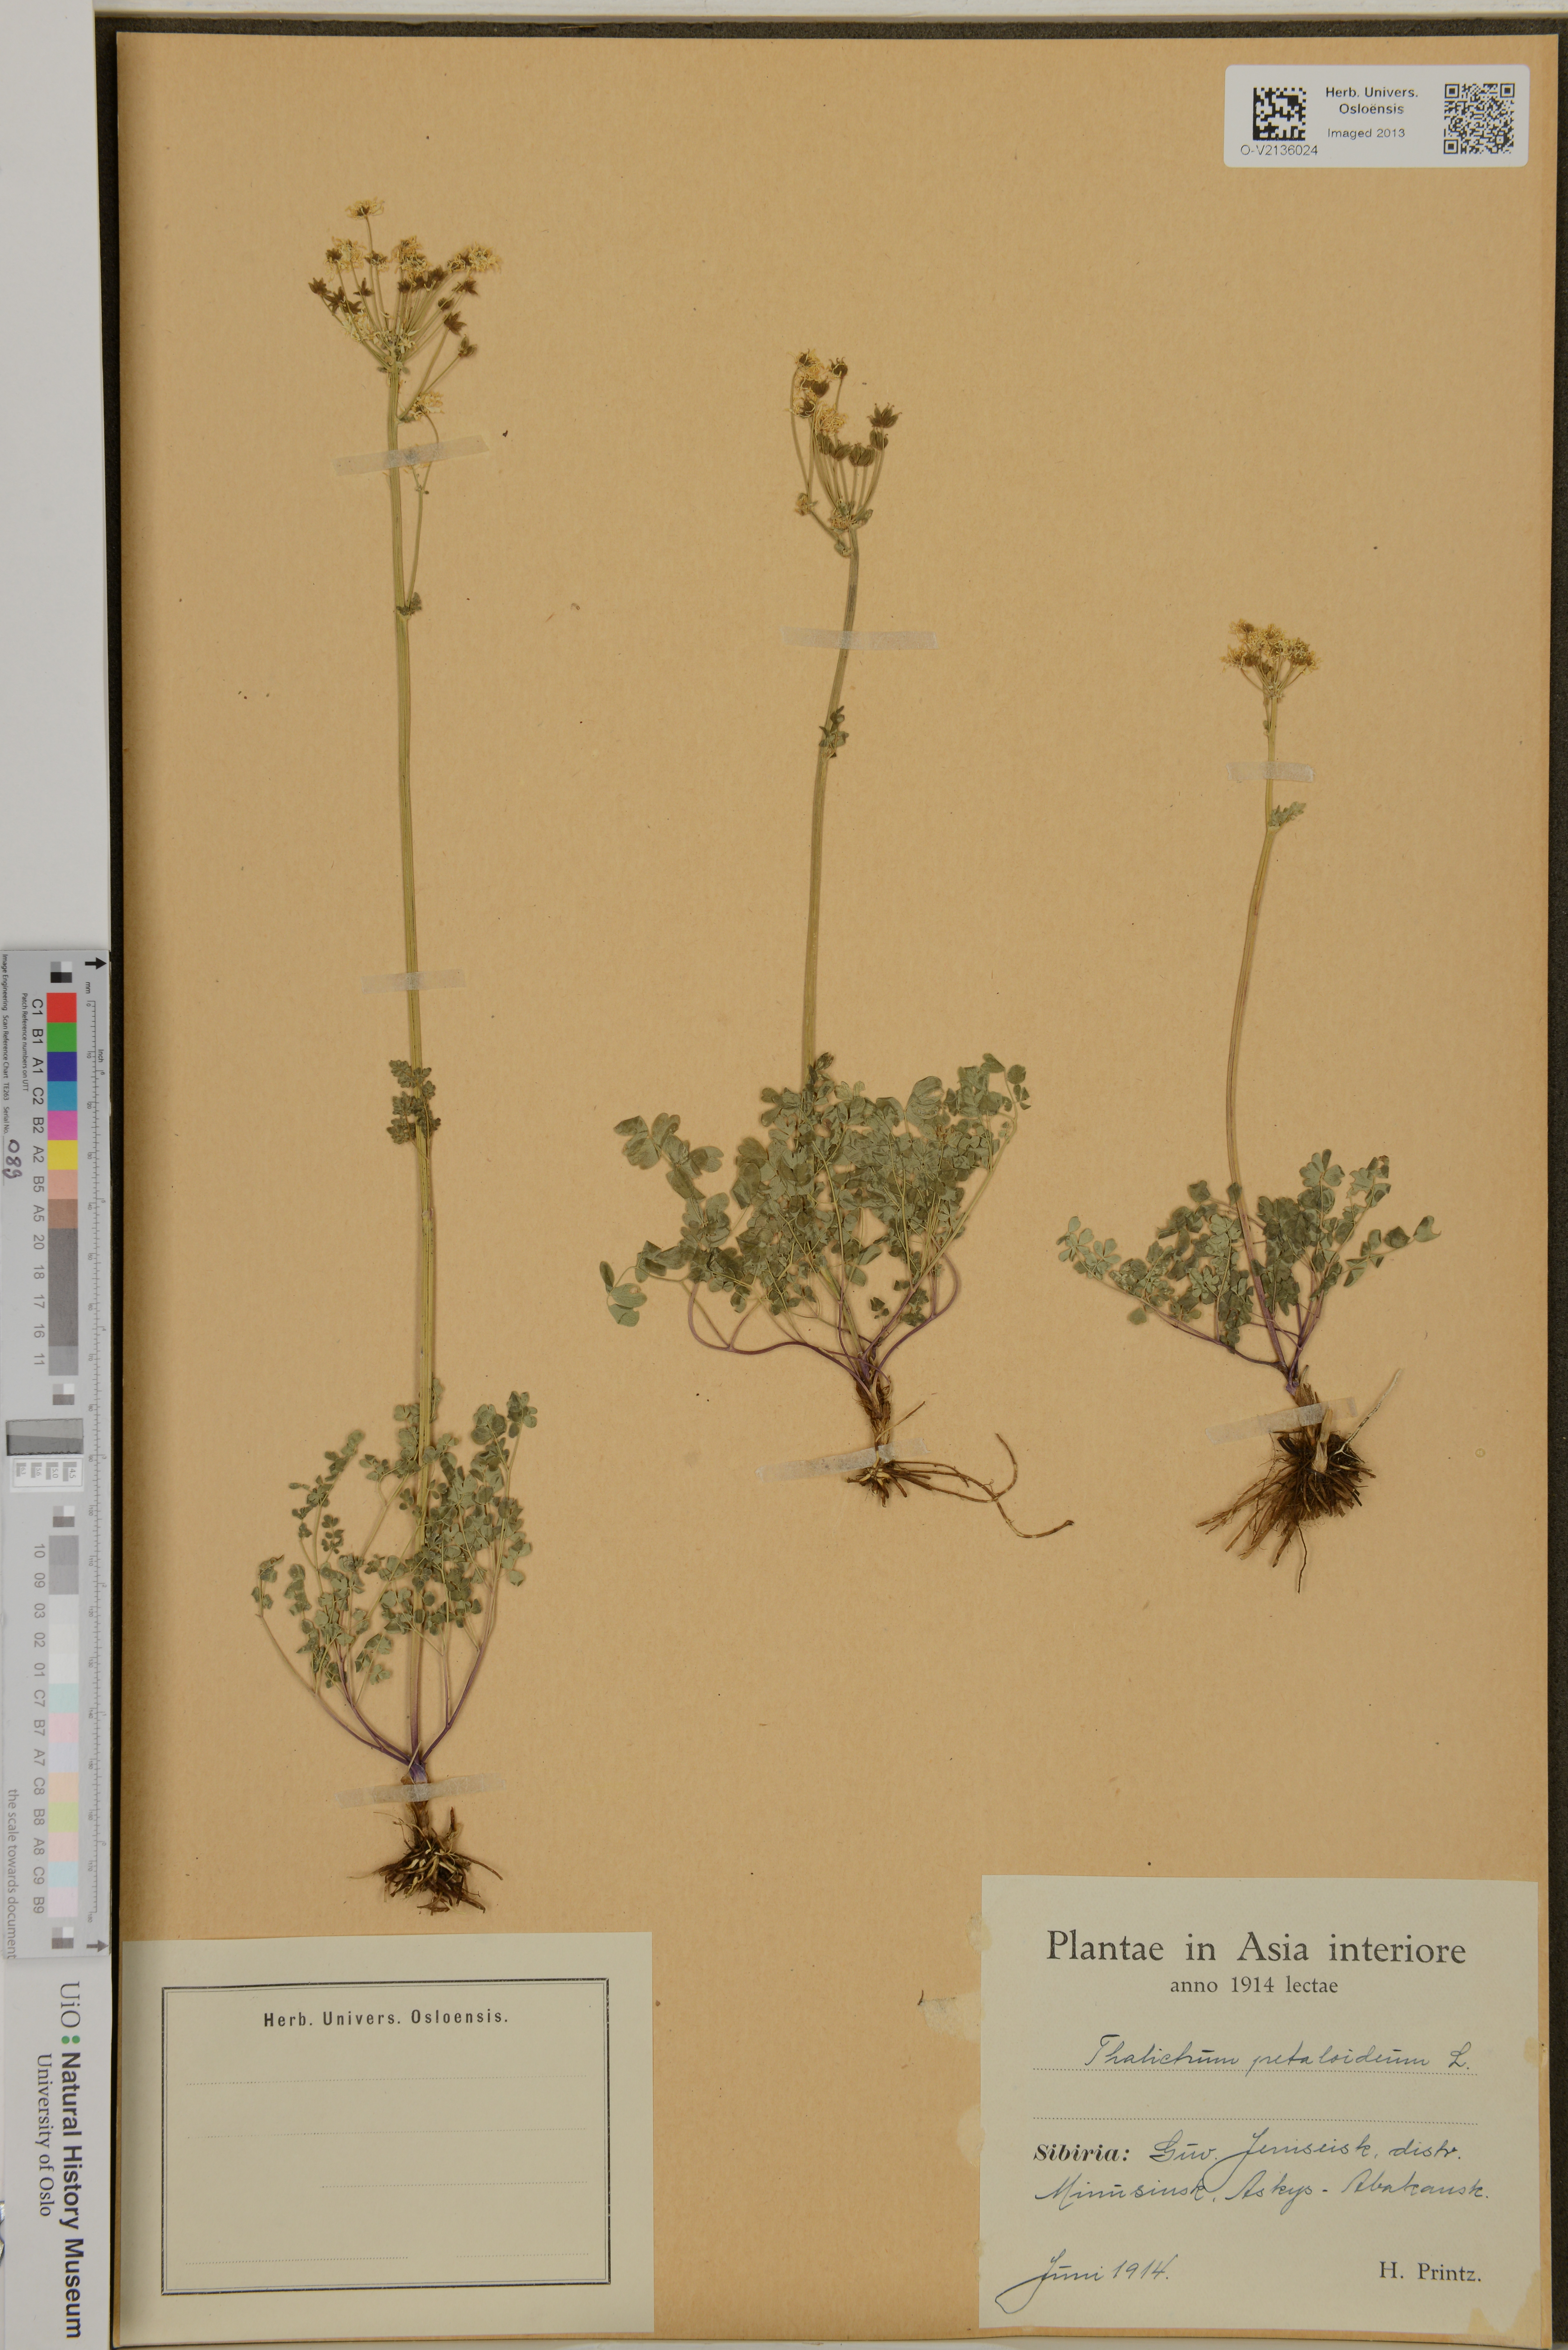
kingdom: Plantae
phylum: Tracheophyta
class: Magnoliopsida
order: Ranunculales
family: Ranunculaceae
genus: Thalictrum
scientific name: Thalictrum petaloideum
